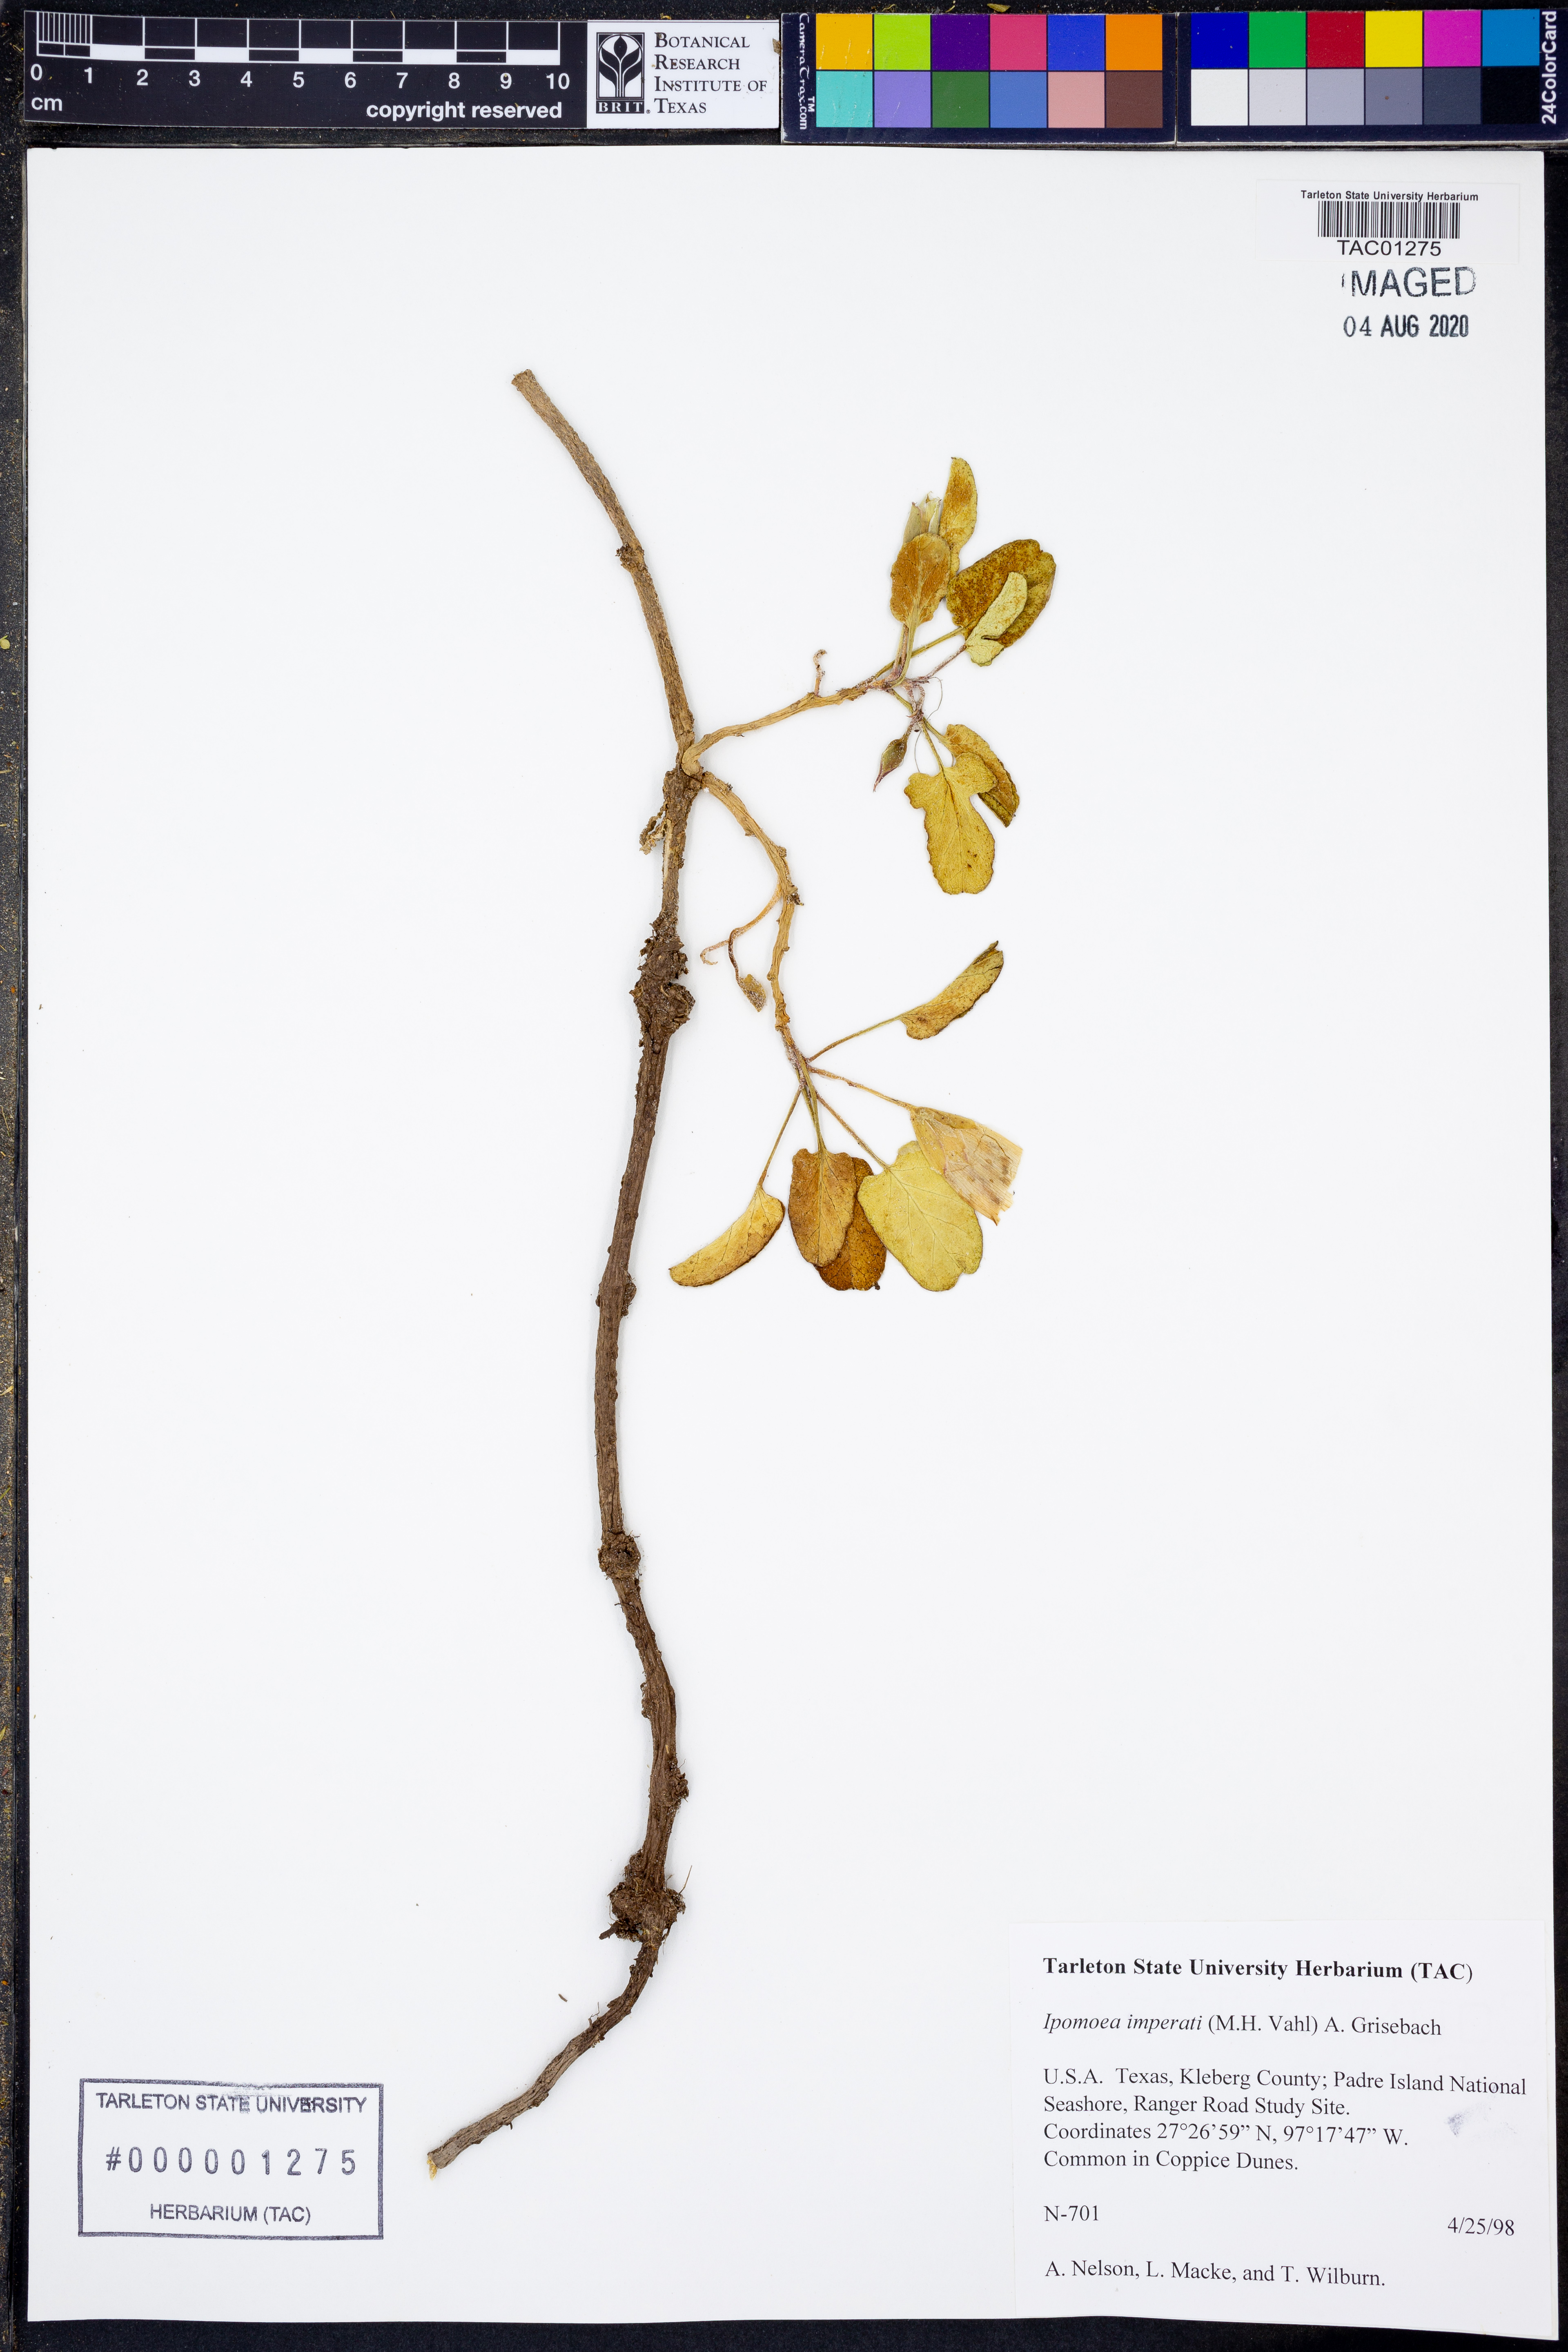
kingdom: Plantae
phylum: Tracheophyta
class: Magnoliopsida
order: Solanales
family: Convolvulaceae
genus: Ipomoea
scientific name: Ipomoea imperati
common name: Fiddle-leaf morning-glory
